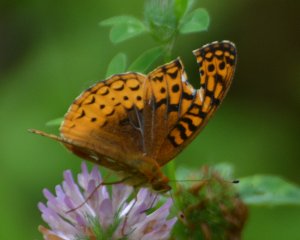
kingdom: Animalia
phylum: Arthropoda
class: Insecta
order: Lepidoptera
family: Nymphalidae
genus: Speyeria
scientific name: Speyeria cybele
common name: Great Spangled Fritillary
